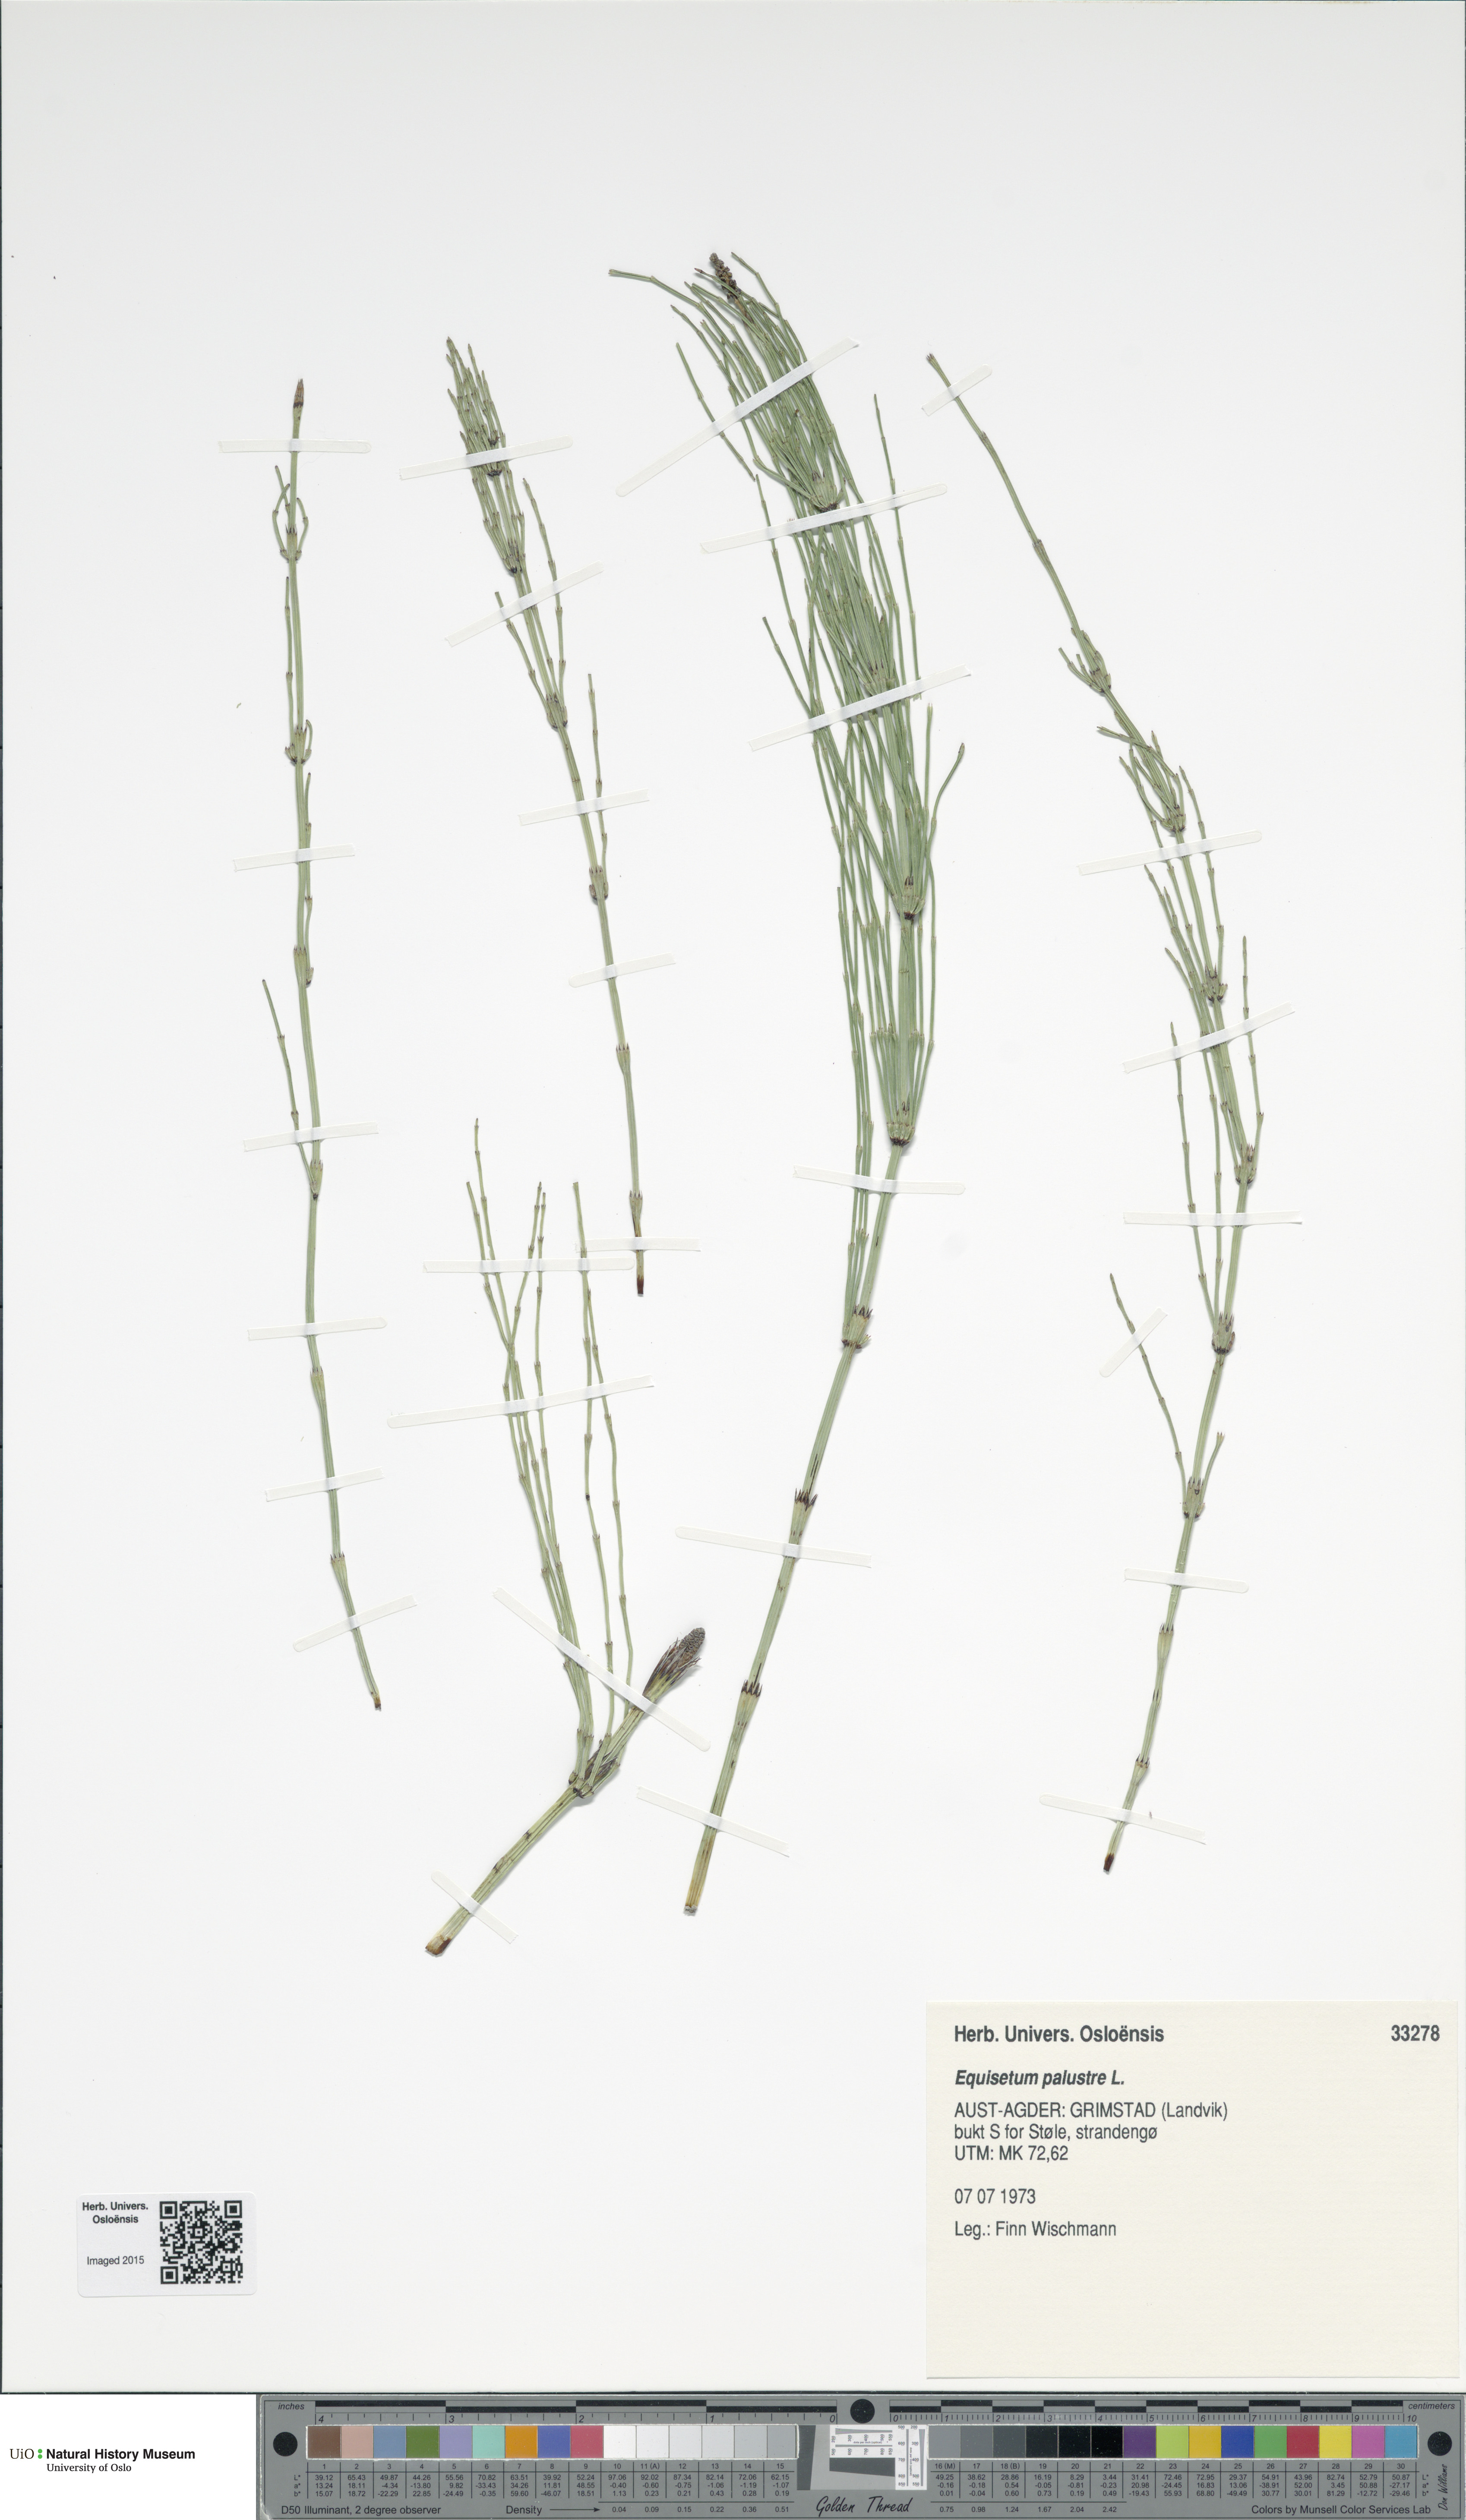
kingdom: Plantae
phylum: Tracheophyta
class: Polypodiopsida
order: Equisetales
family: Equisetaceae
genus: Equisetum
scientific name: Equisetum palustre
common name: Marsh horsetail
